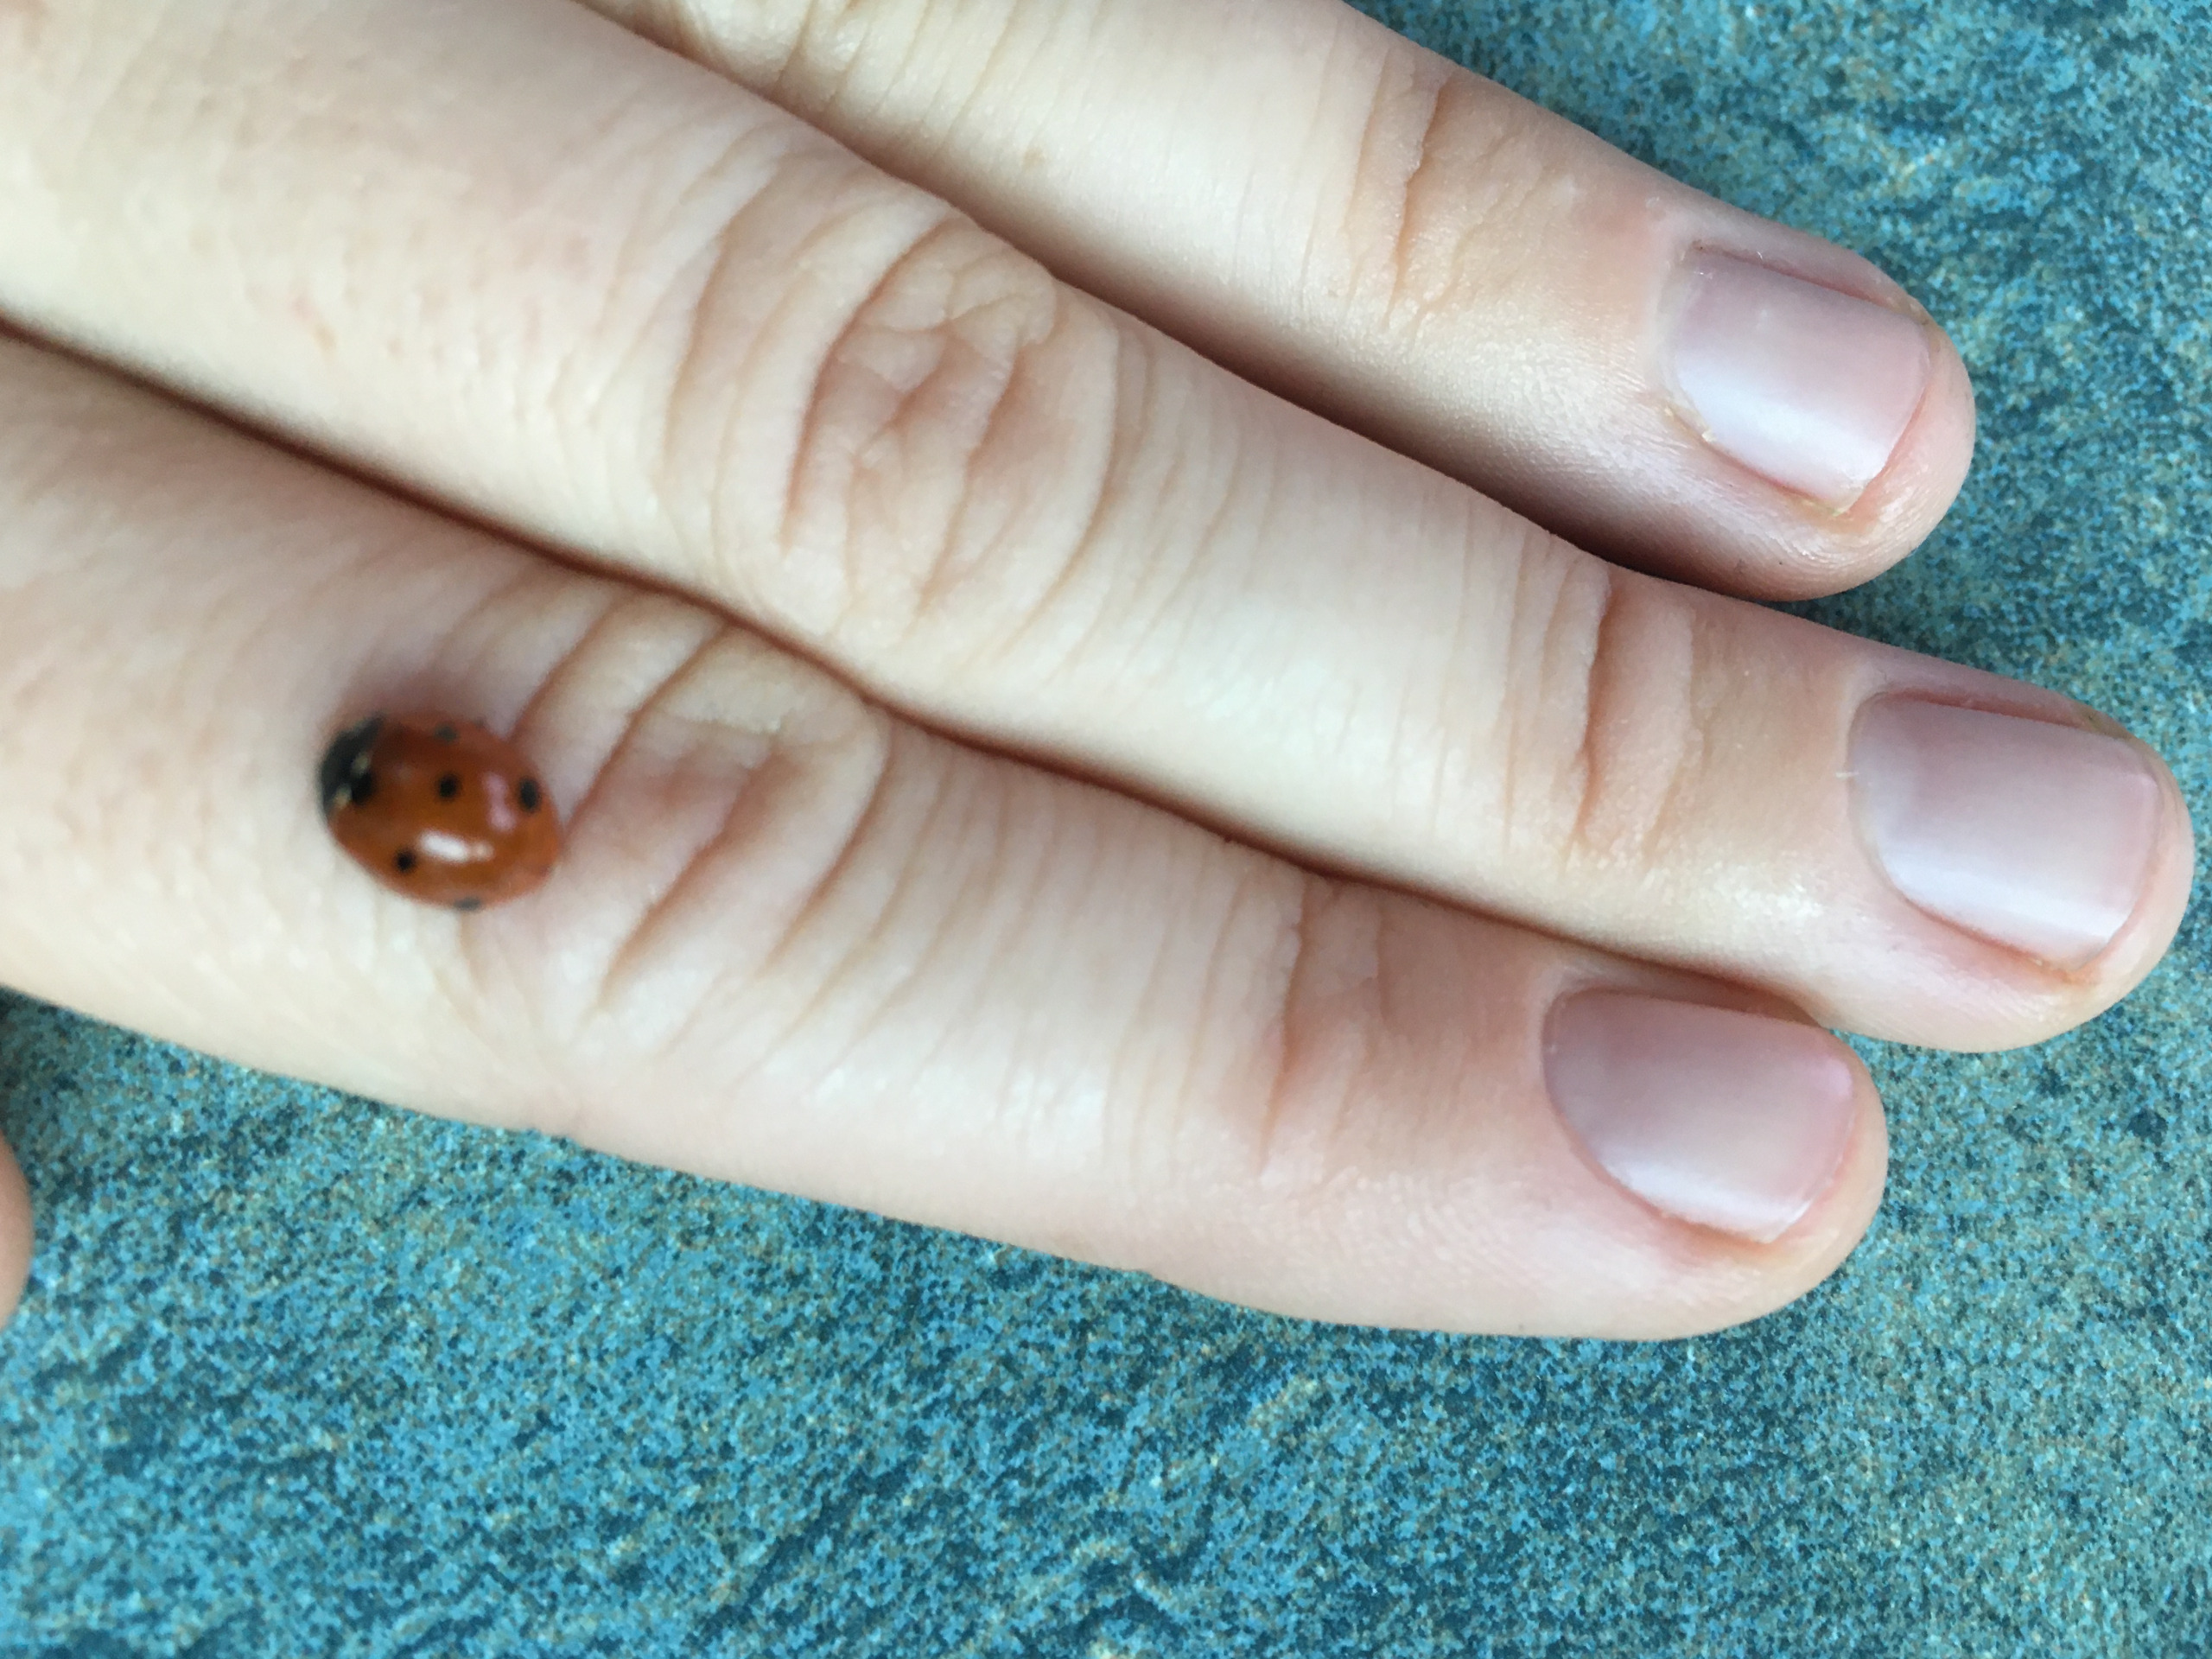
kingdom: Animalia
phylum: Arthropoda
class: Insecta
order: Coleoptera
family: Coccinellidae
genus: Coccinella
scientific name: Coccinella septempunctata
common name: Syvplettet mariehøne
